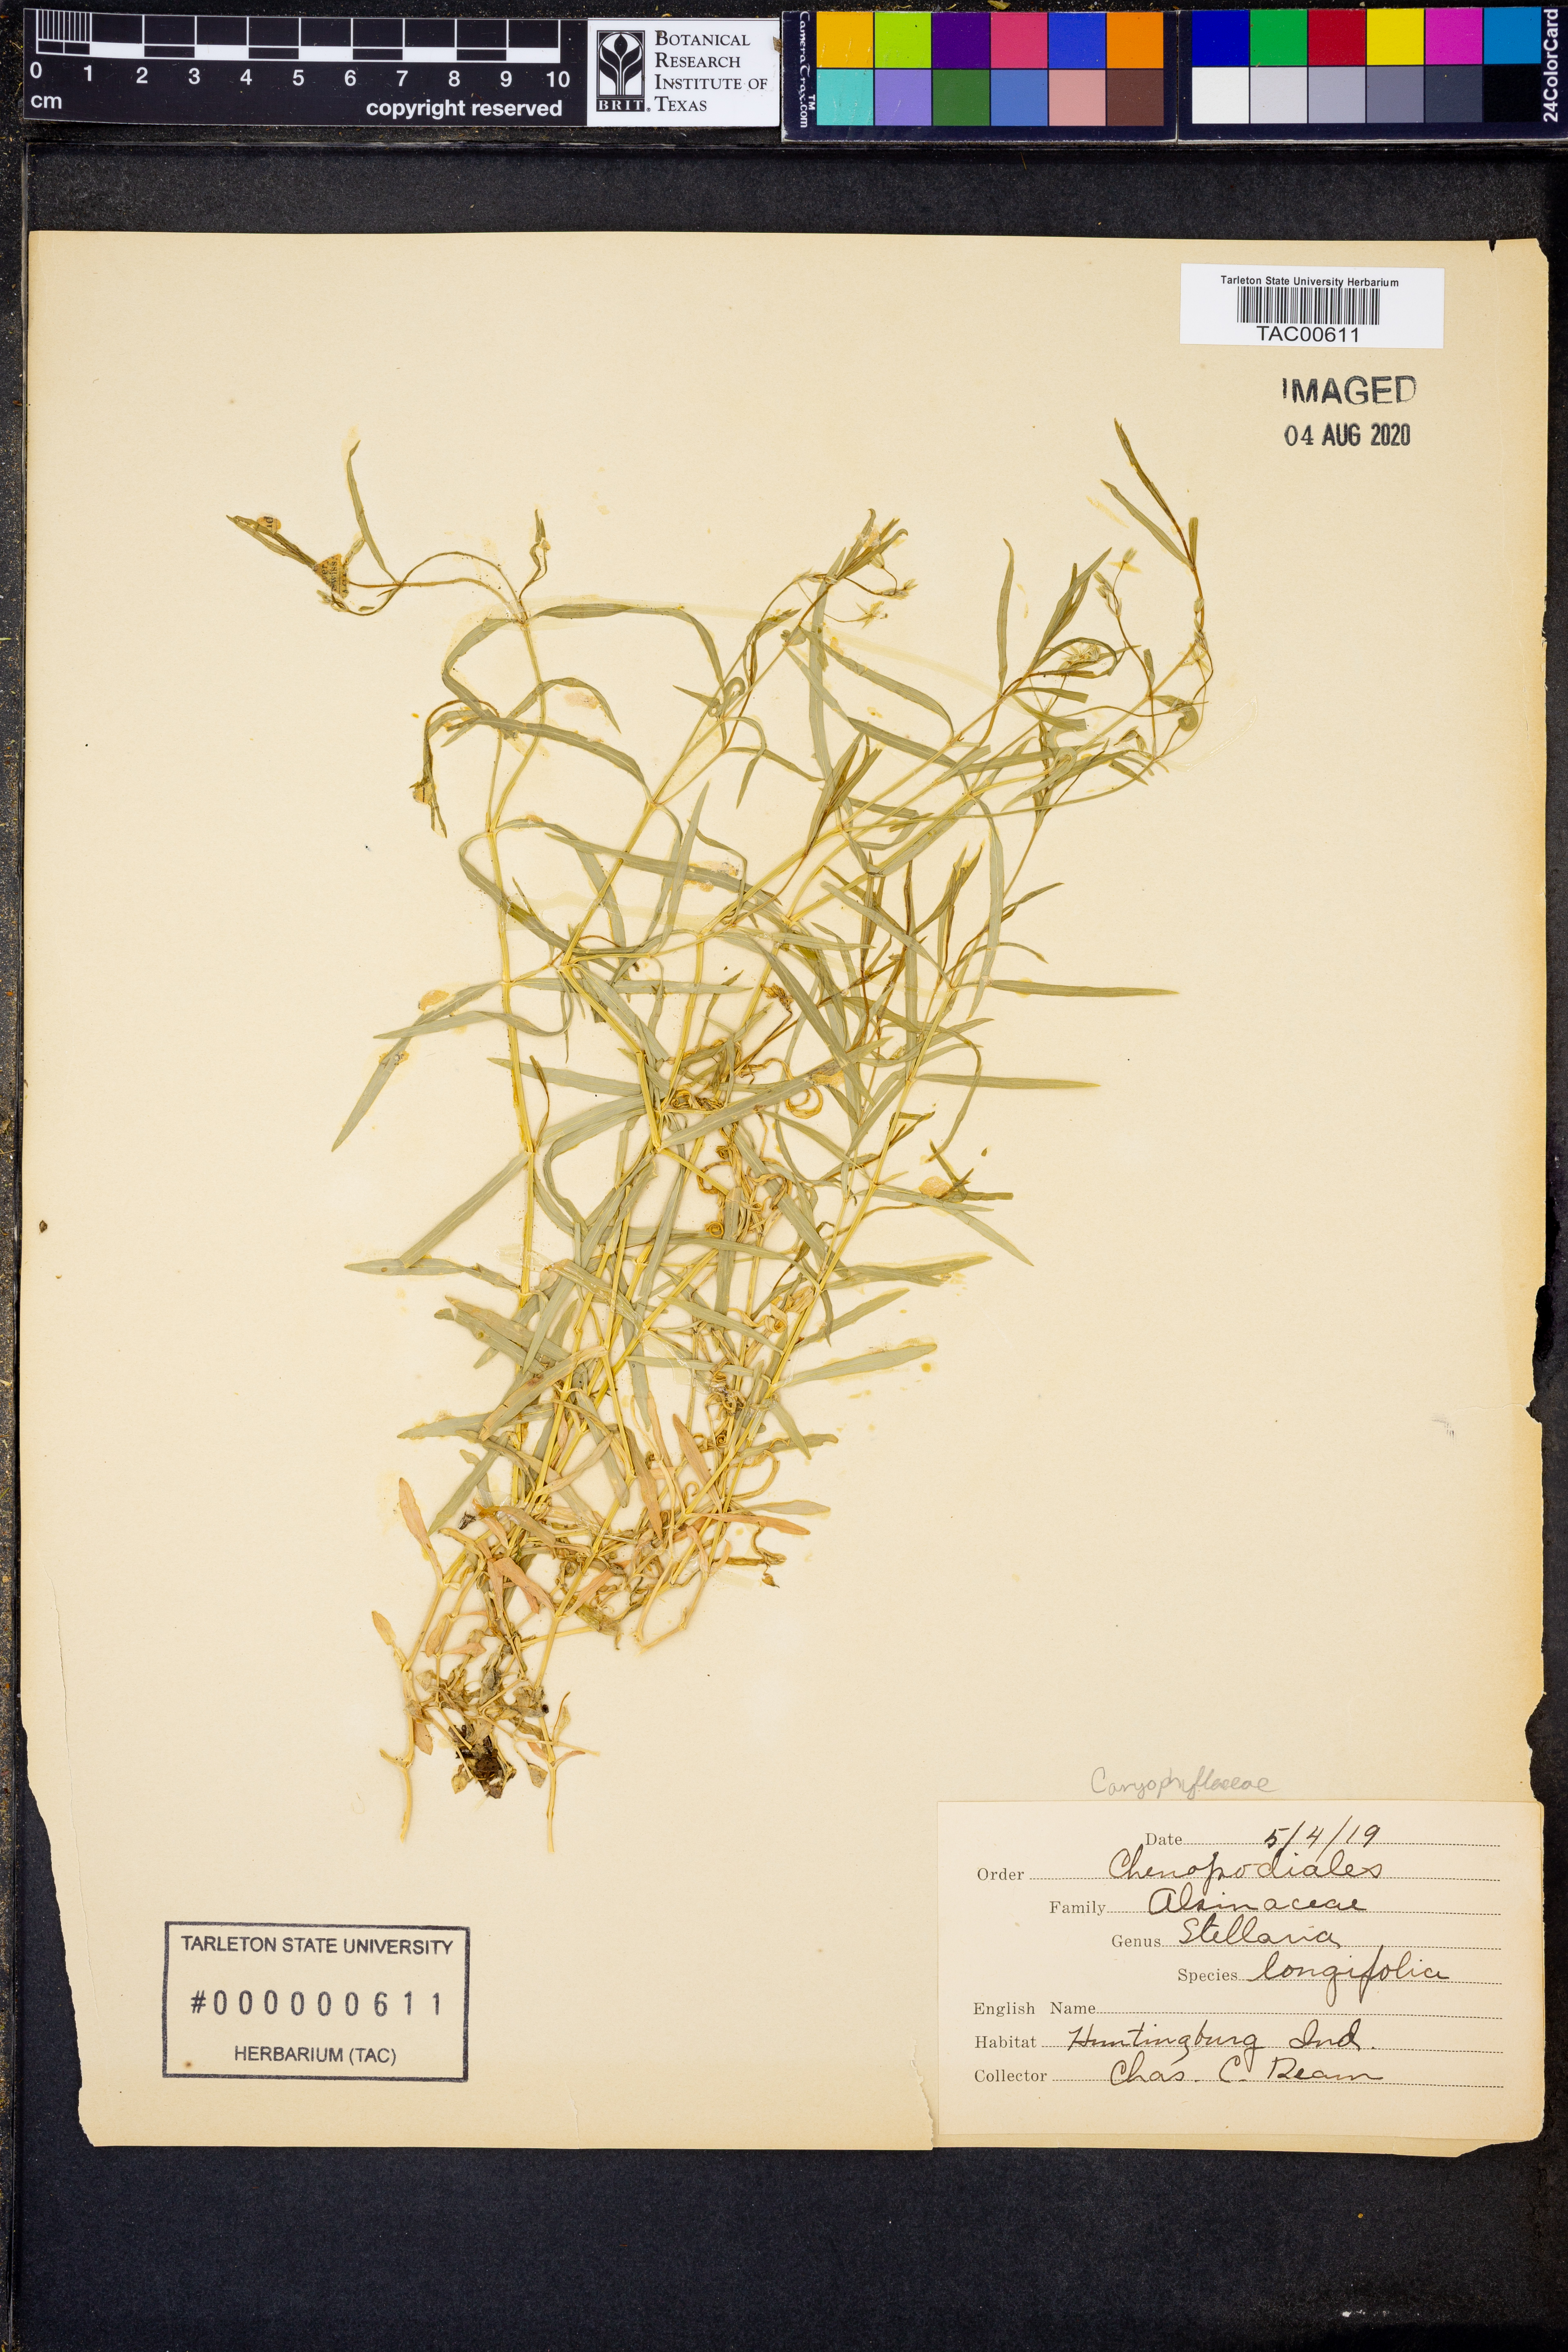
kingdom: Plantae
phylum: Tracheophyta
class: Magnoliopsida
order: Caryophyllales
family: Caryophyllaceae
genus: Stellaria
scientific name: Stellaria longifolia
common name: Long-leaved chickweed
